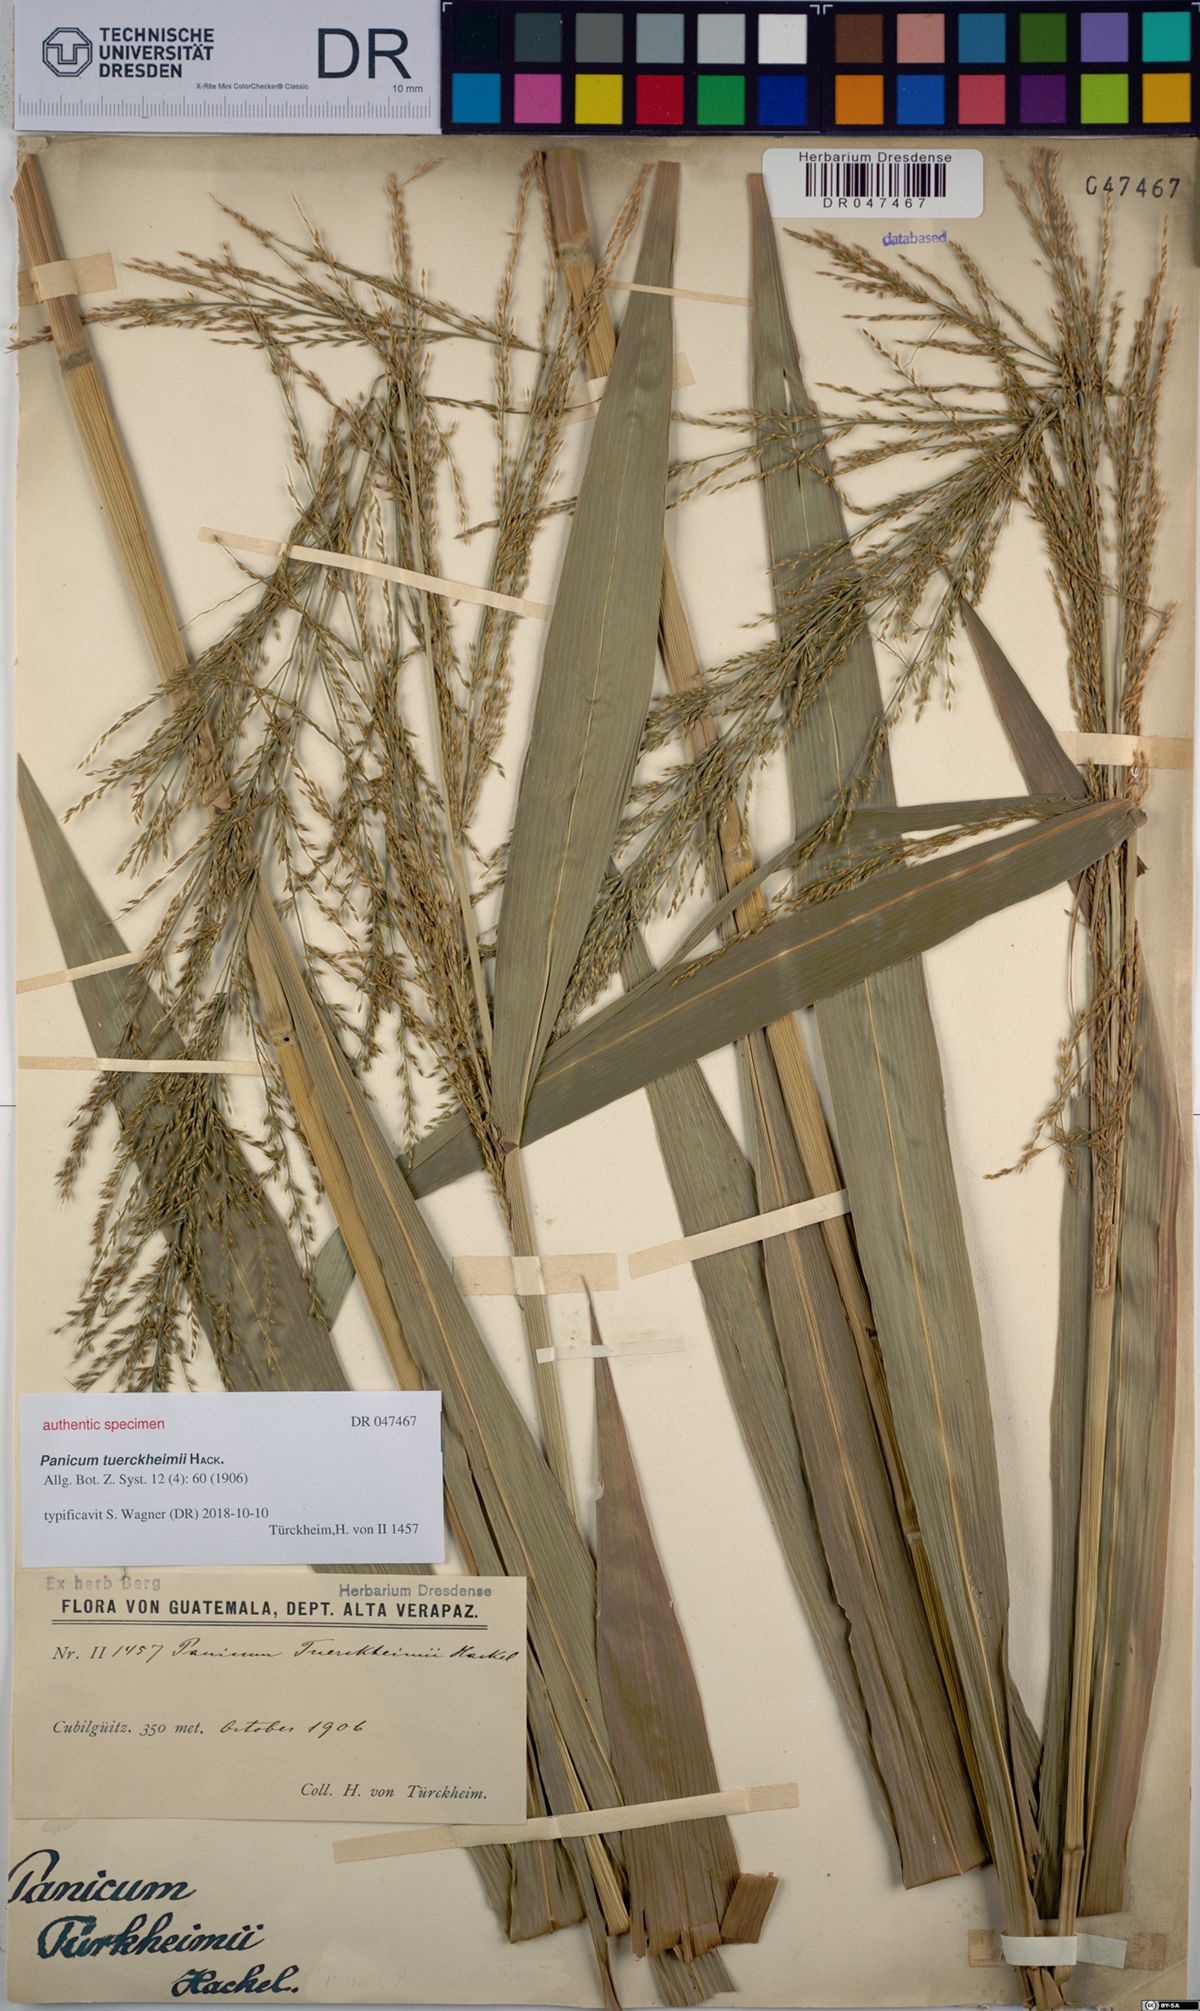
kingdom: Plantae
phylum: Tracheophyta
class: Liliopsida
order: Poales
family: Poaceae
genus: Aakia
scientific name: Aakia tuerckheimii
